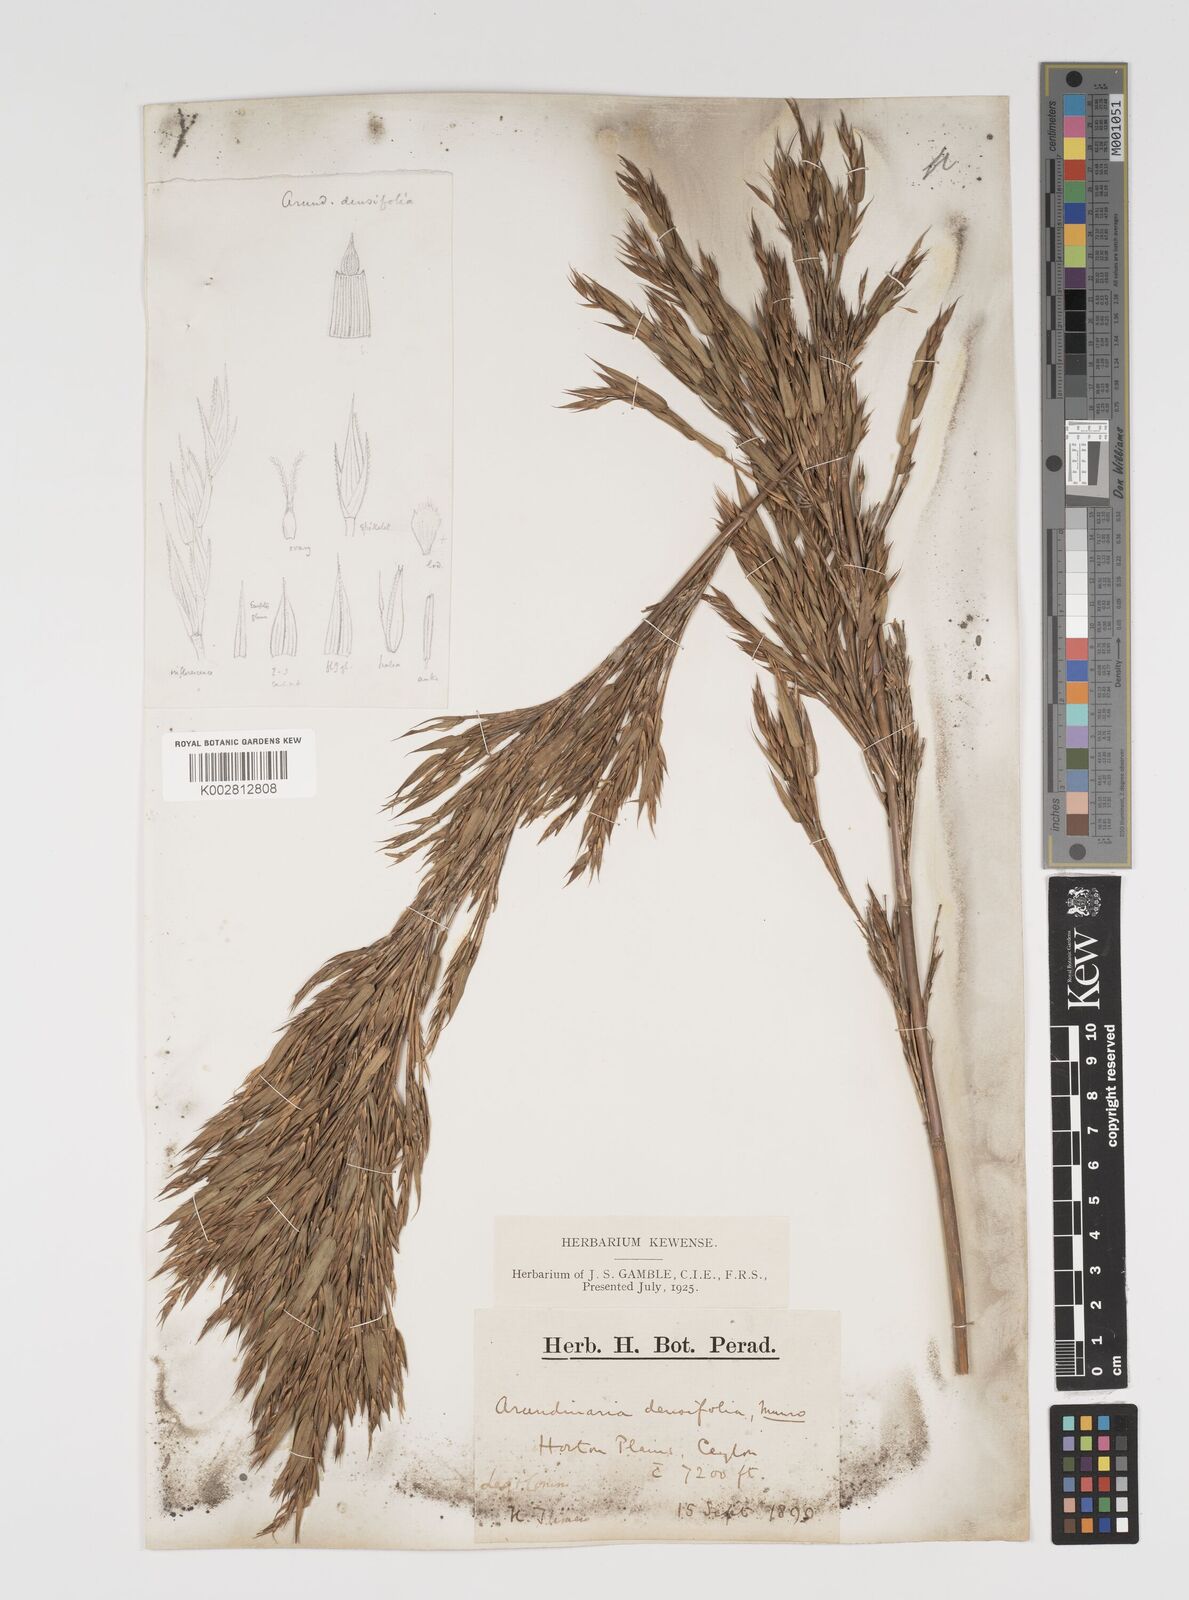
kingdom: Plantae
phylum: Tracheophyta
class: Liliopsida
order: Poales
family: Poaceae
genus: Kuruna
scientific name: Kuruna densifolia
